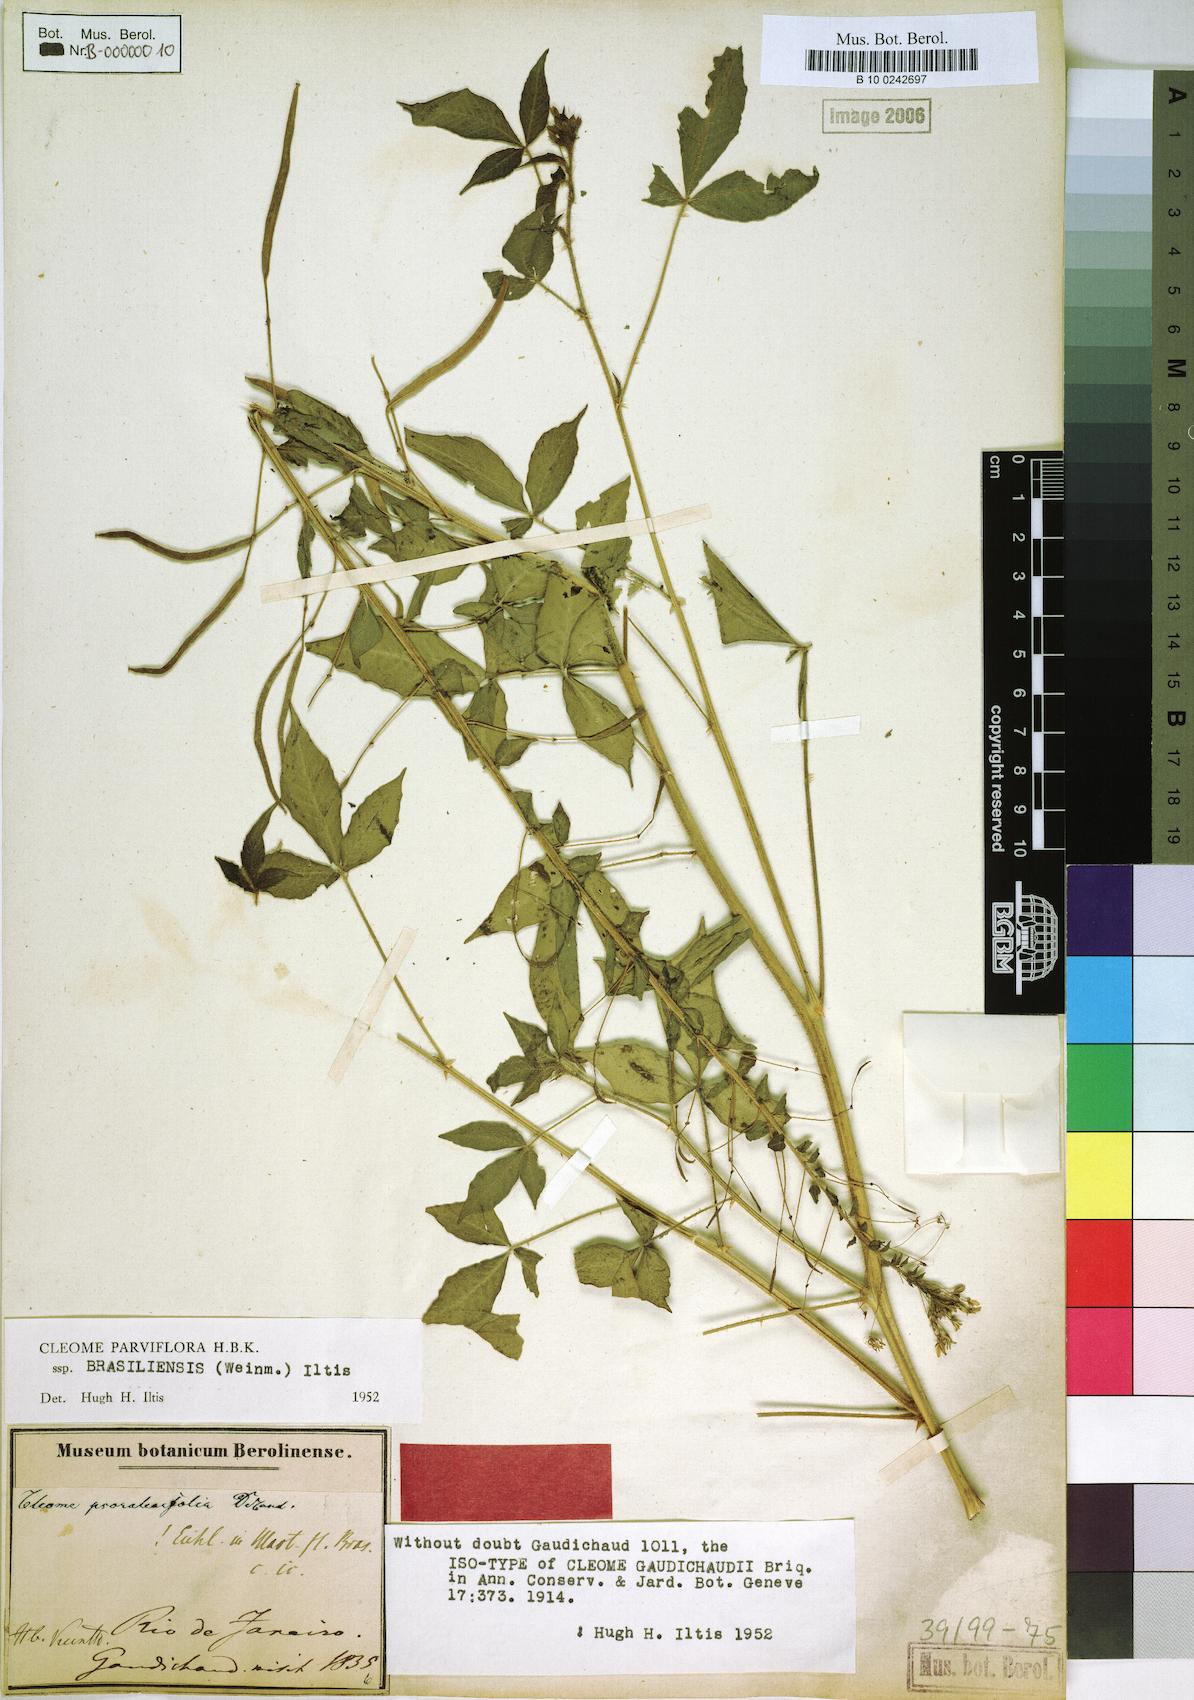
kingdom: Plantae
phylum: Tracheophyta
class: Magnoliopsida
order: Brassicales
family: Cleomaceae
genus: Tarenaya
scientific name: Tarenaya parviflora
